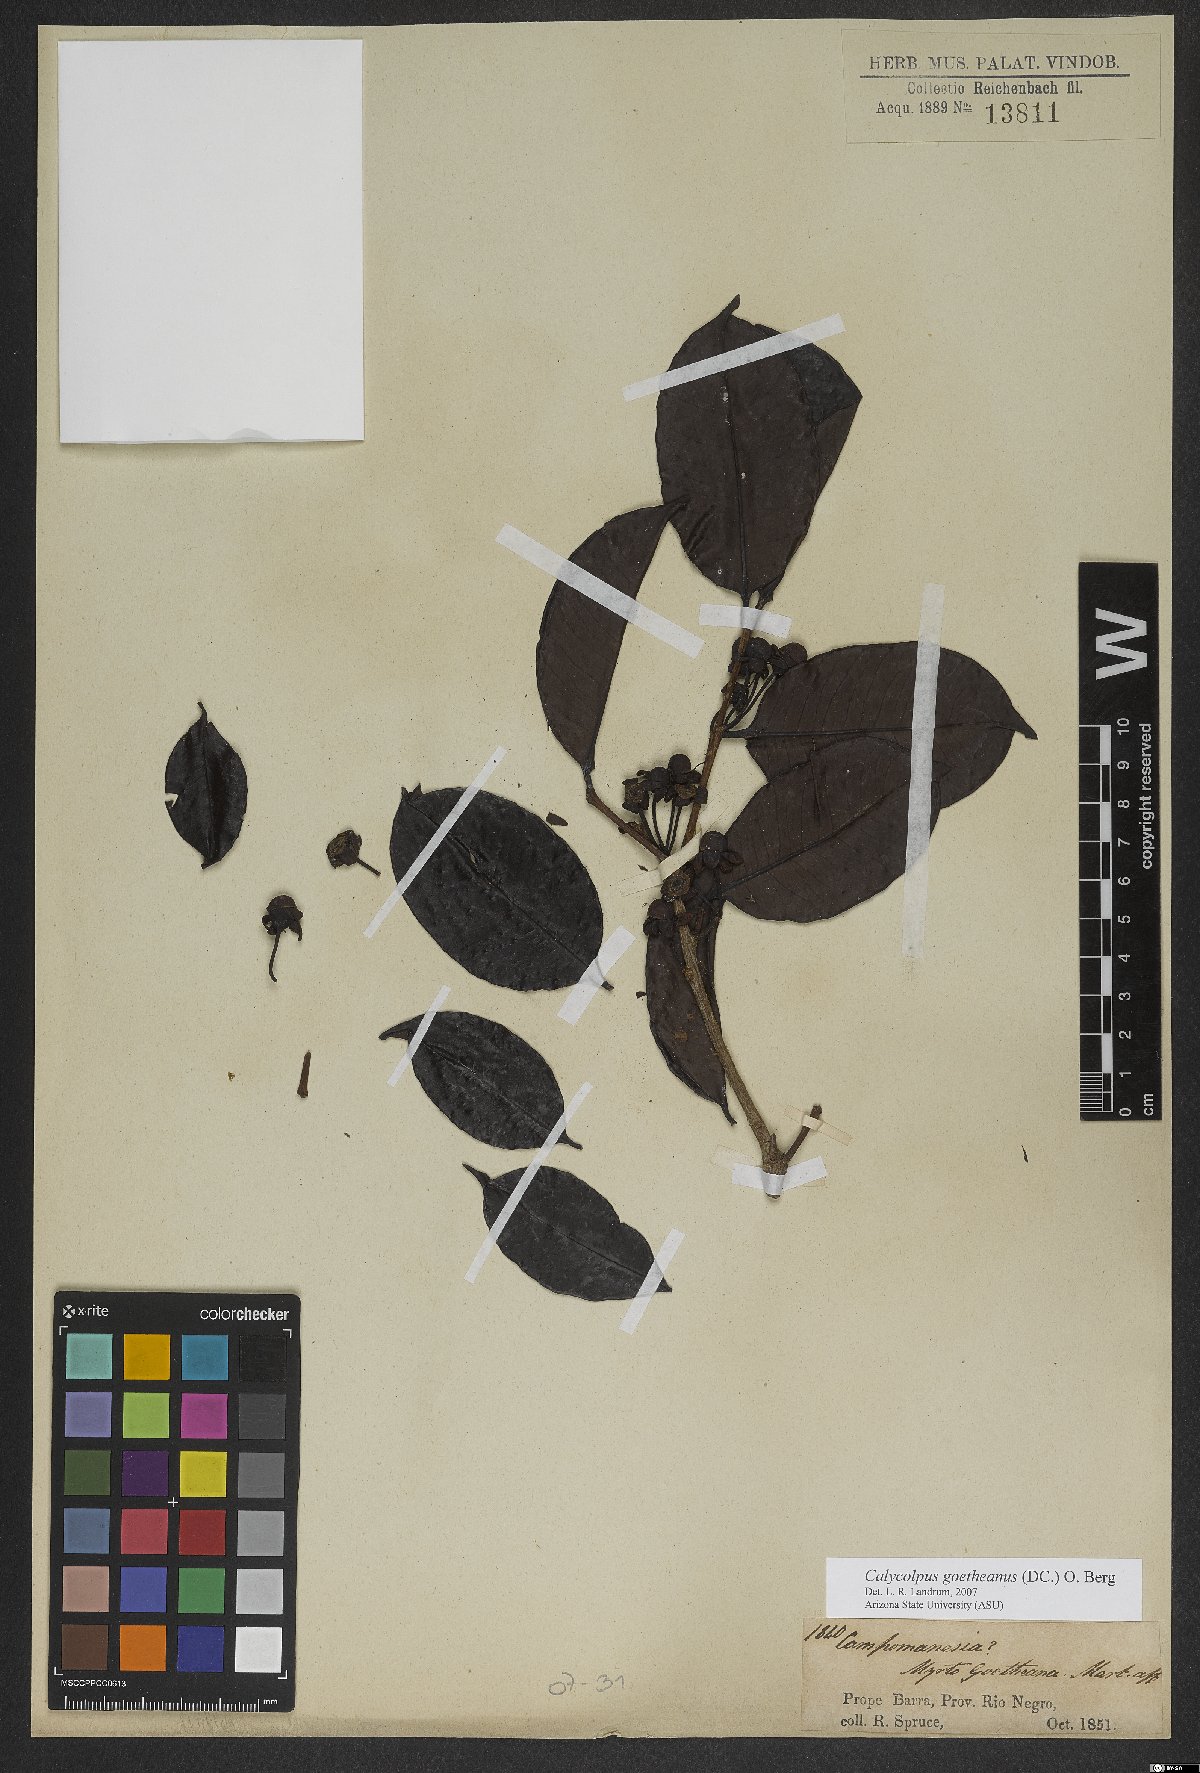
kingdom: Plantae
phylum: Tracheophyta
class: Magnoliopsida
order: Myrtales
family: Myrtaceae
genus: Calycolpus
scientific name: Calycolpus goetheanus
